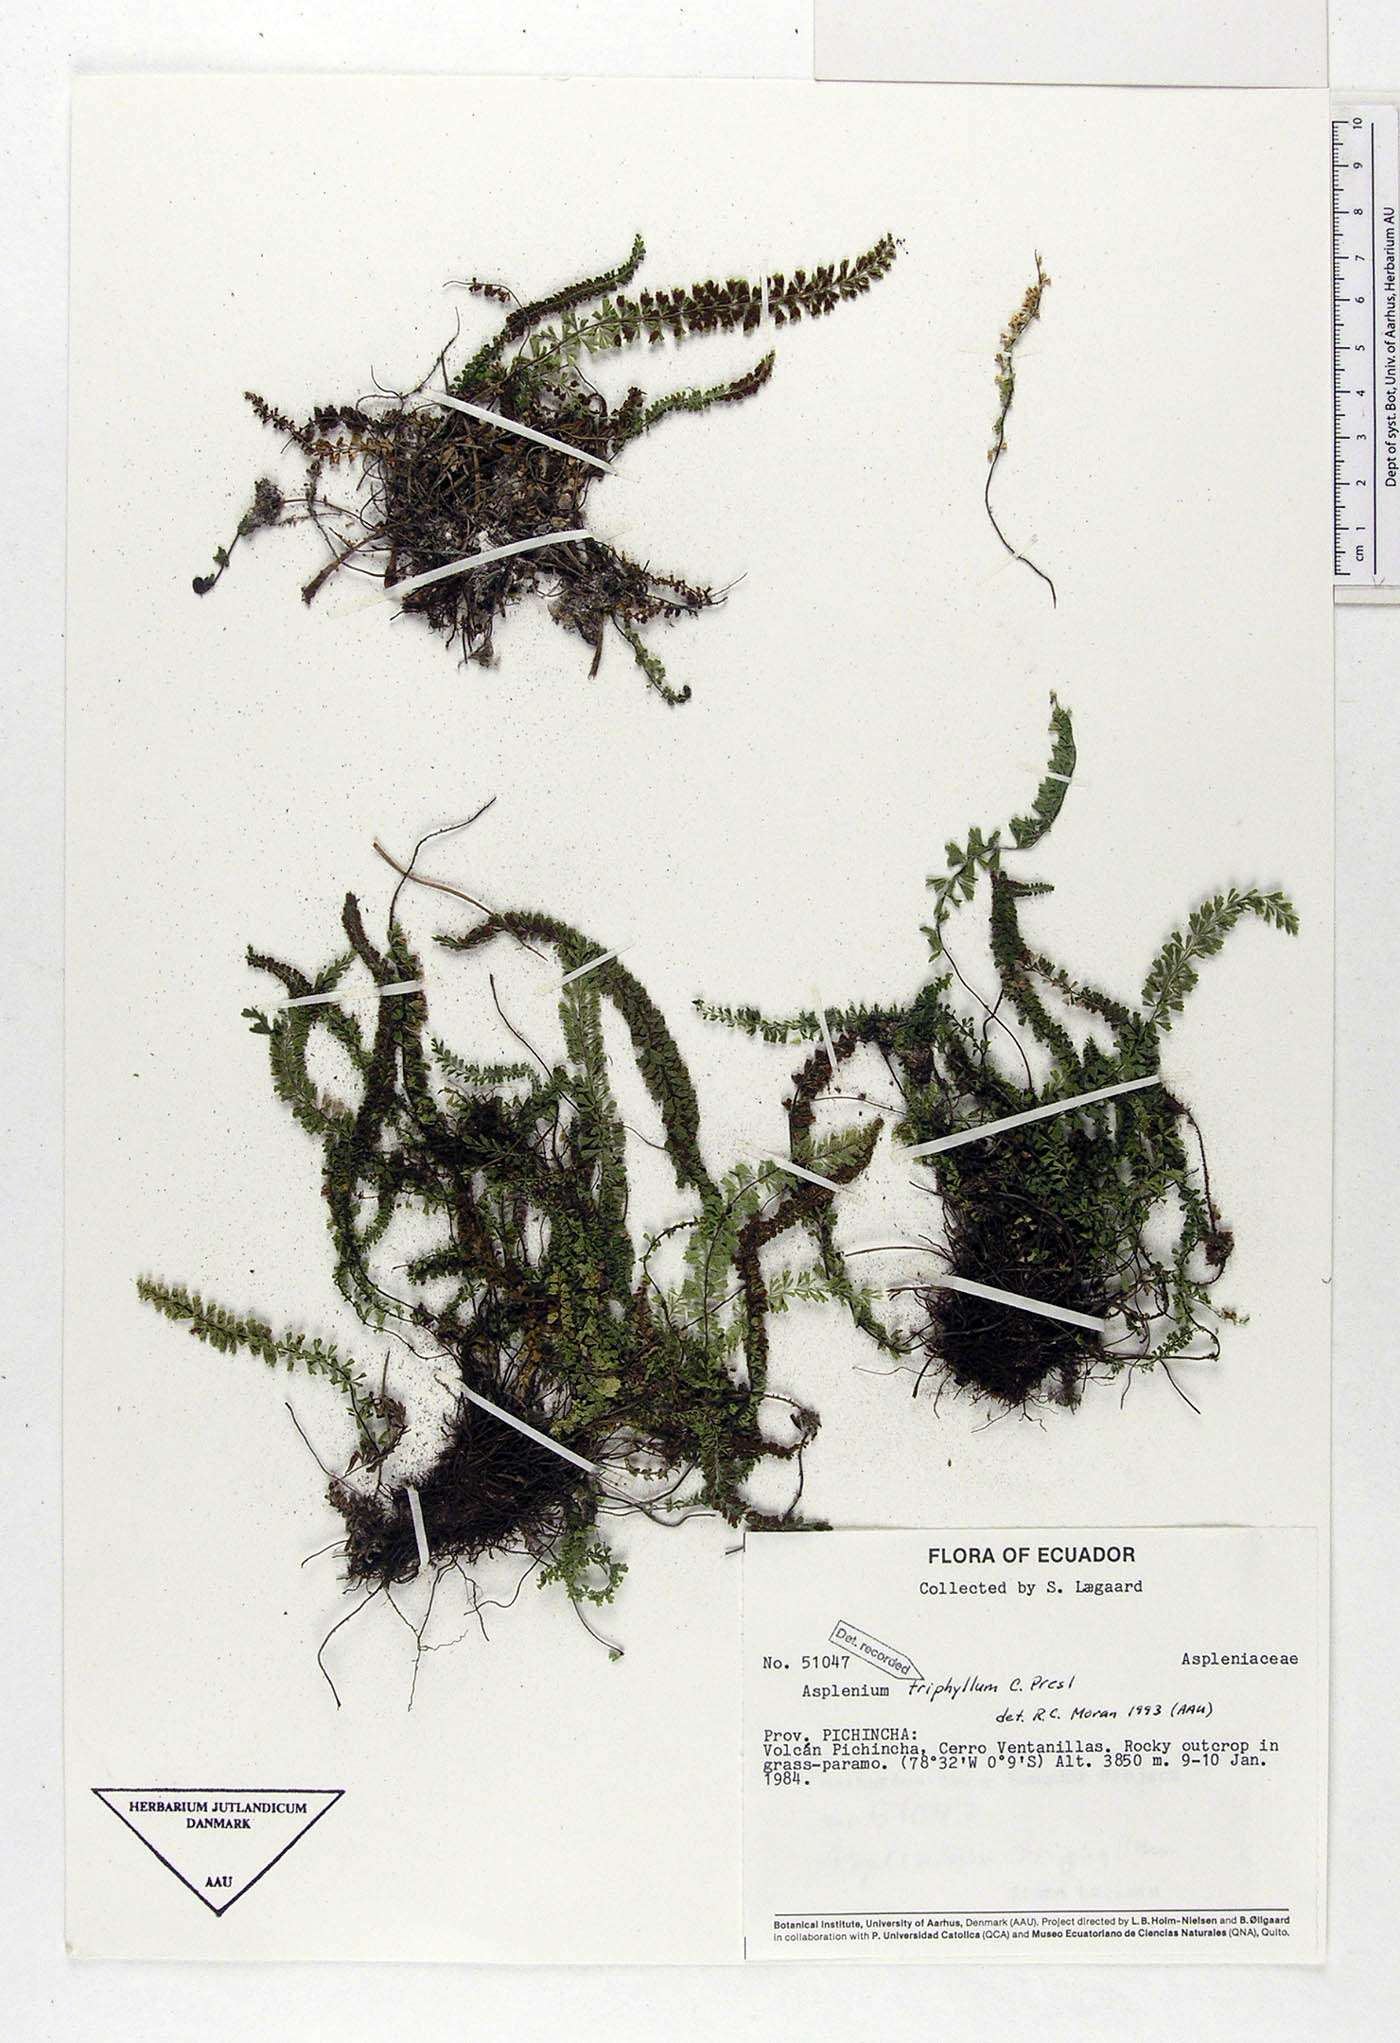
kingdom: Plantae
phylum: Tracheophyta
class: Polypodiopsida
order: Polypodiales
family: Aspleniaceae
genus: Asplenium
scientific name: Asplenium triphyllum
